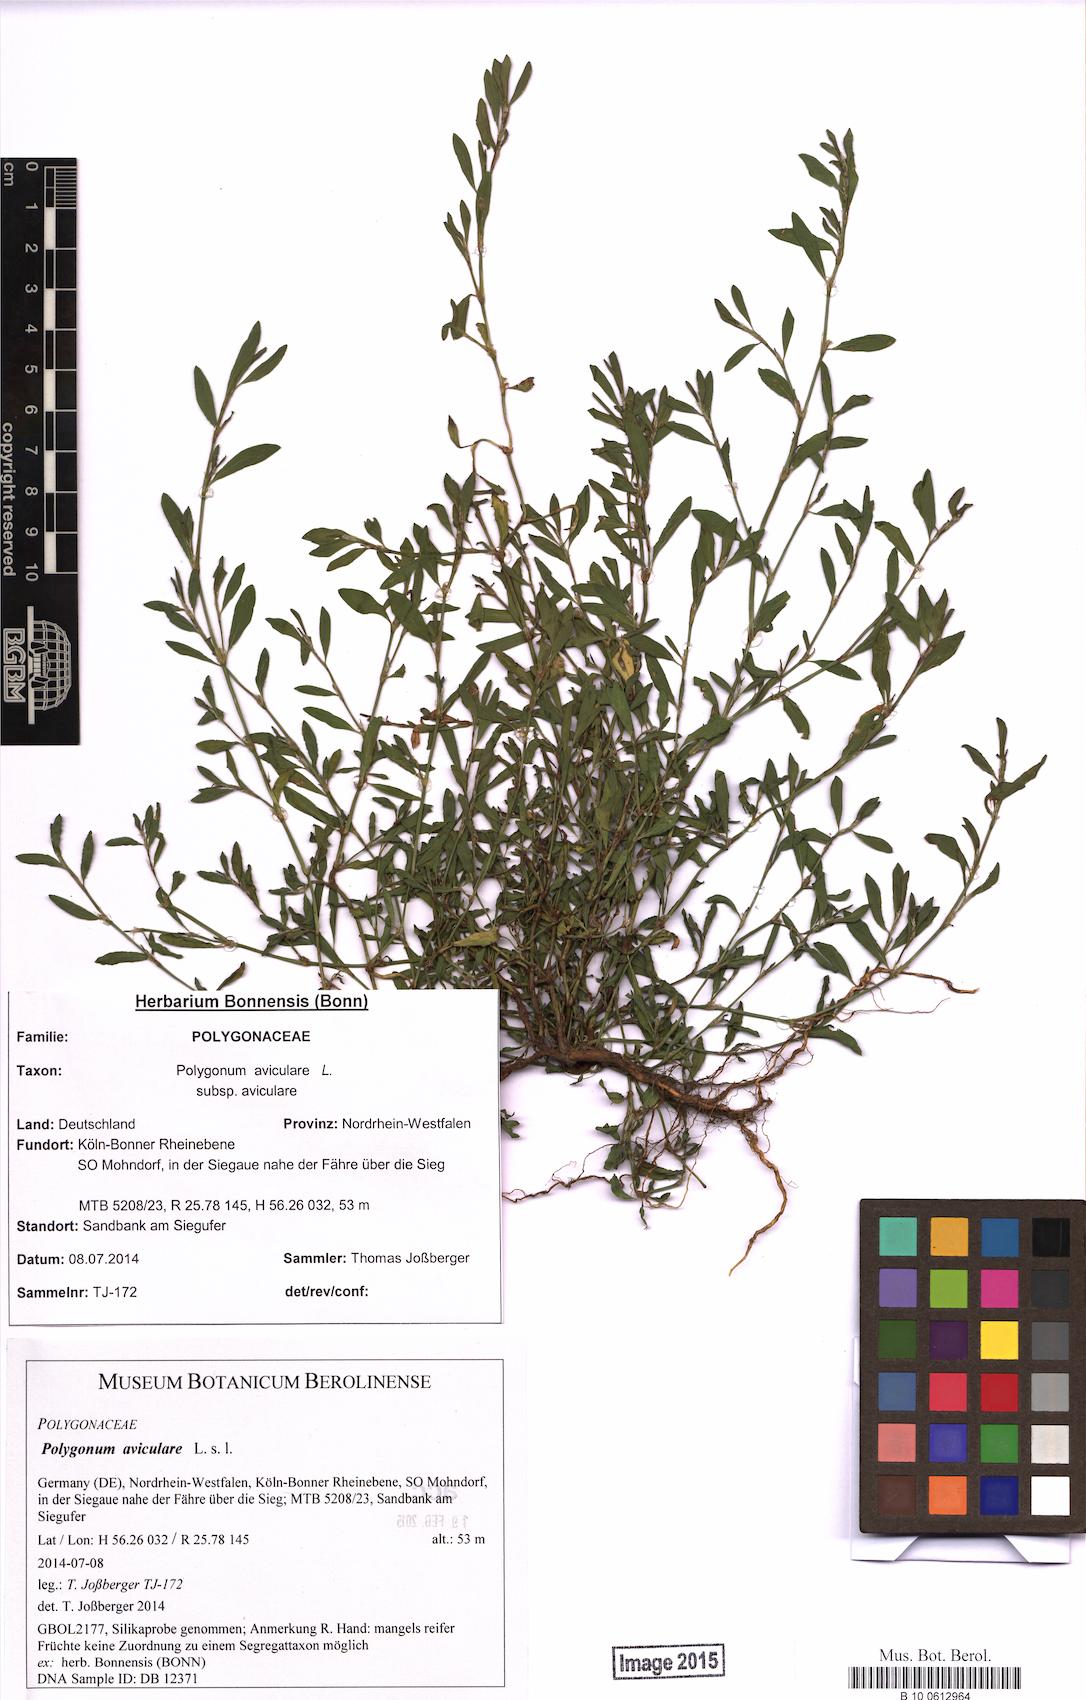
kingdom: Plantae
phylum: Tracheophyta
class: Magnoliopsida
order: Caryophyllales
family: Polygonaceae
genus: Polygonum
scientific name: Polygonum aviculare
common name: Prostrate knotweed
